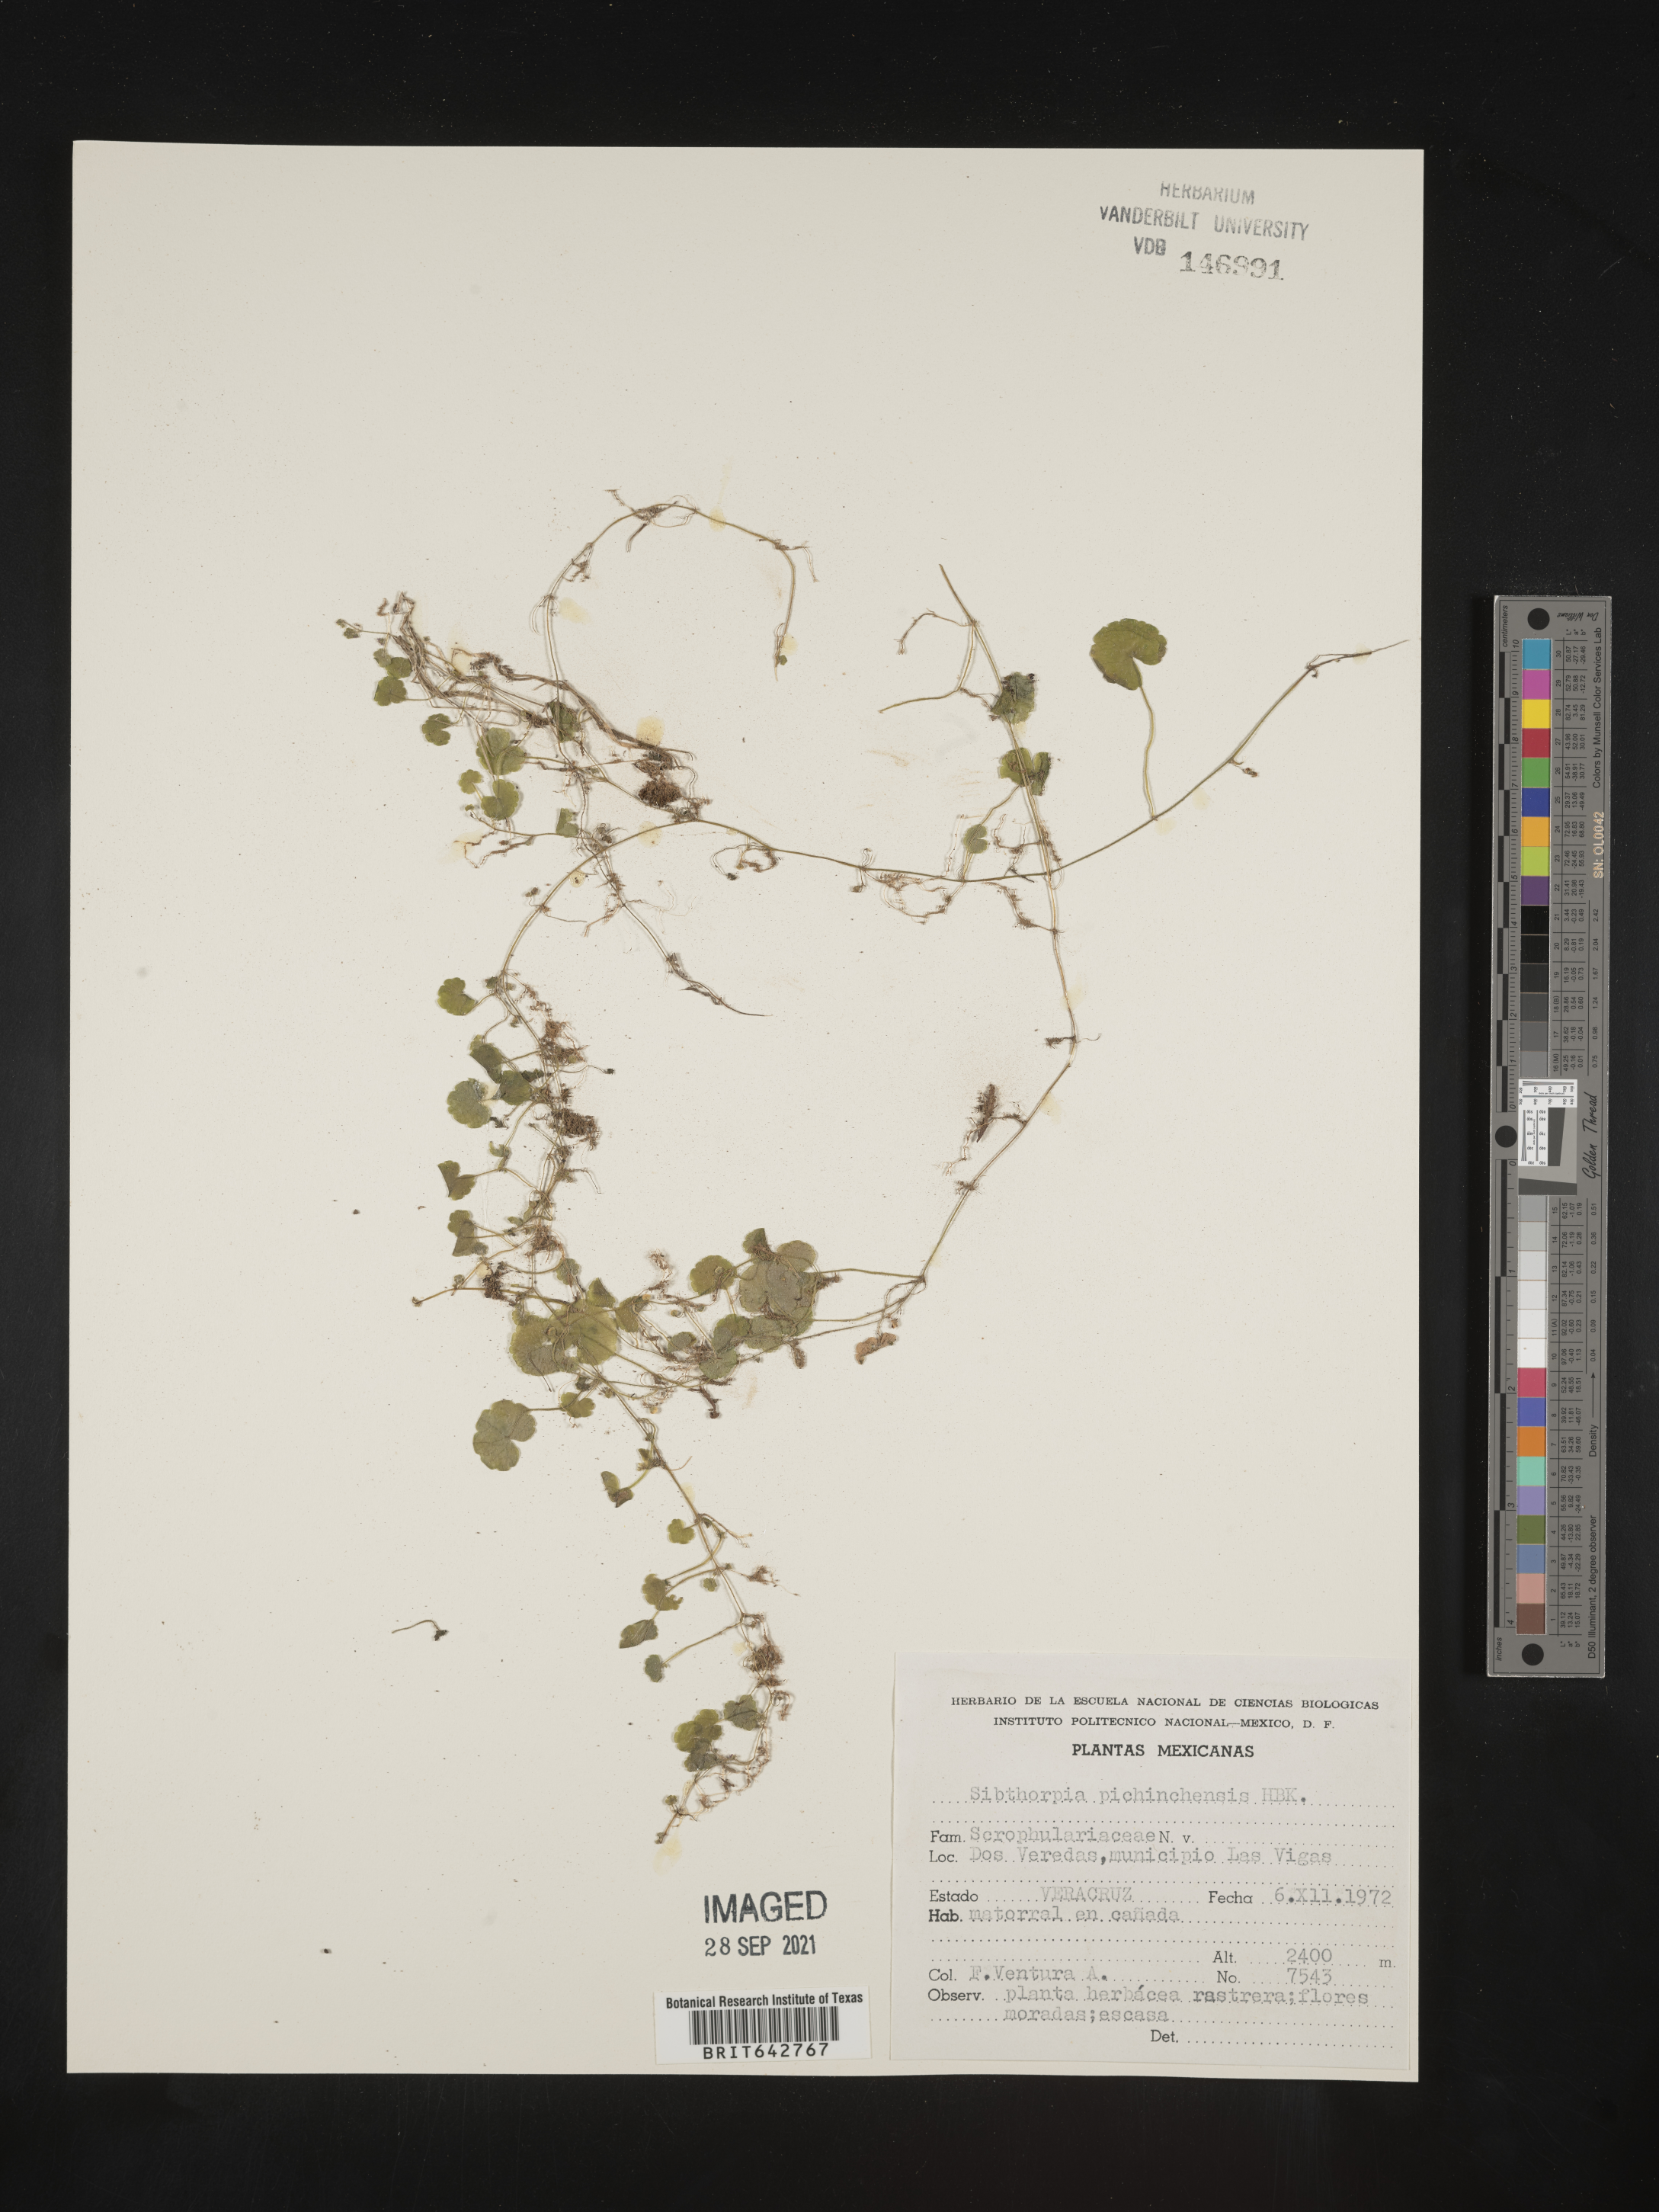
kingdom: Plantae
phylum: Tracheophyta
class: Magnoliopsida
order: Lamiales
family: Plantaginaceae
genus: Sibthorpia
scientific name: Sibthorpia
